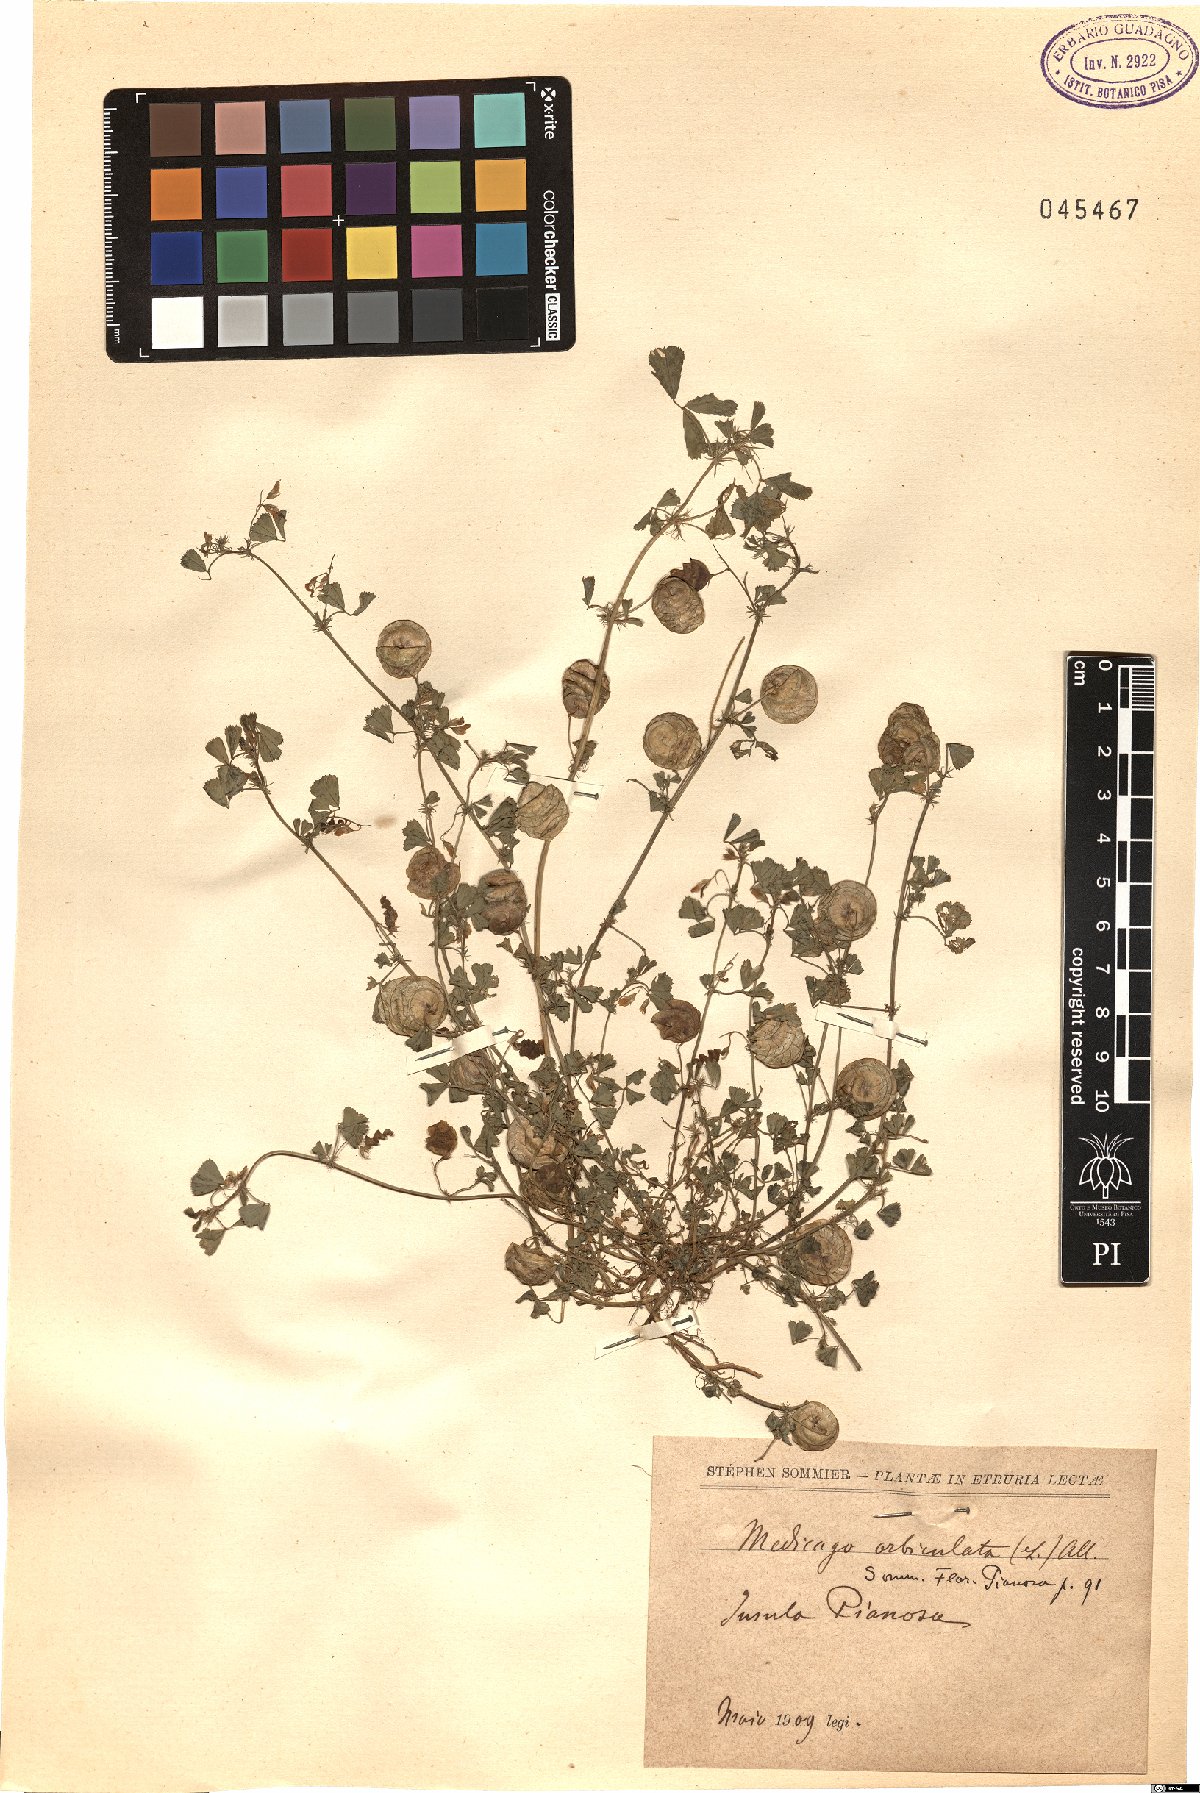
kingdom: Plantae
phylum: Tracheophyta
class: Magnoliopsida
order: Fabales
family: Fabaceae
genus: Medicago
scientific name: Medicago orbicularis
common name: Button medick
